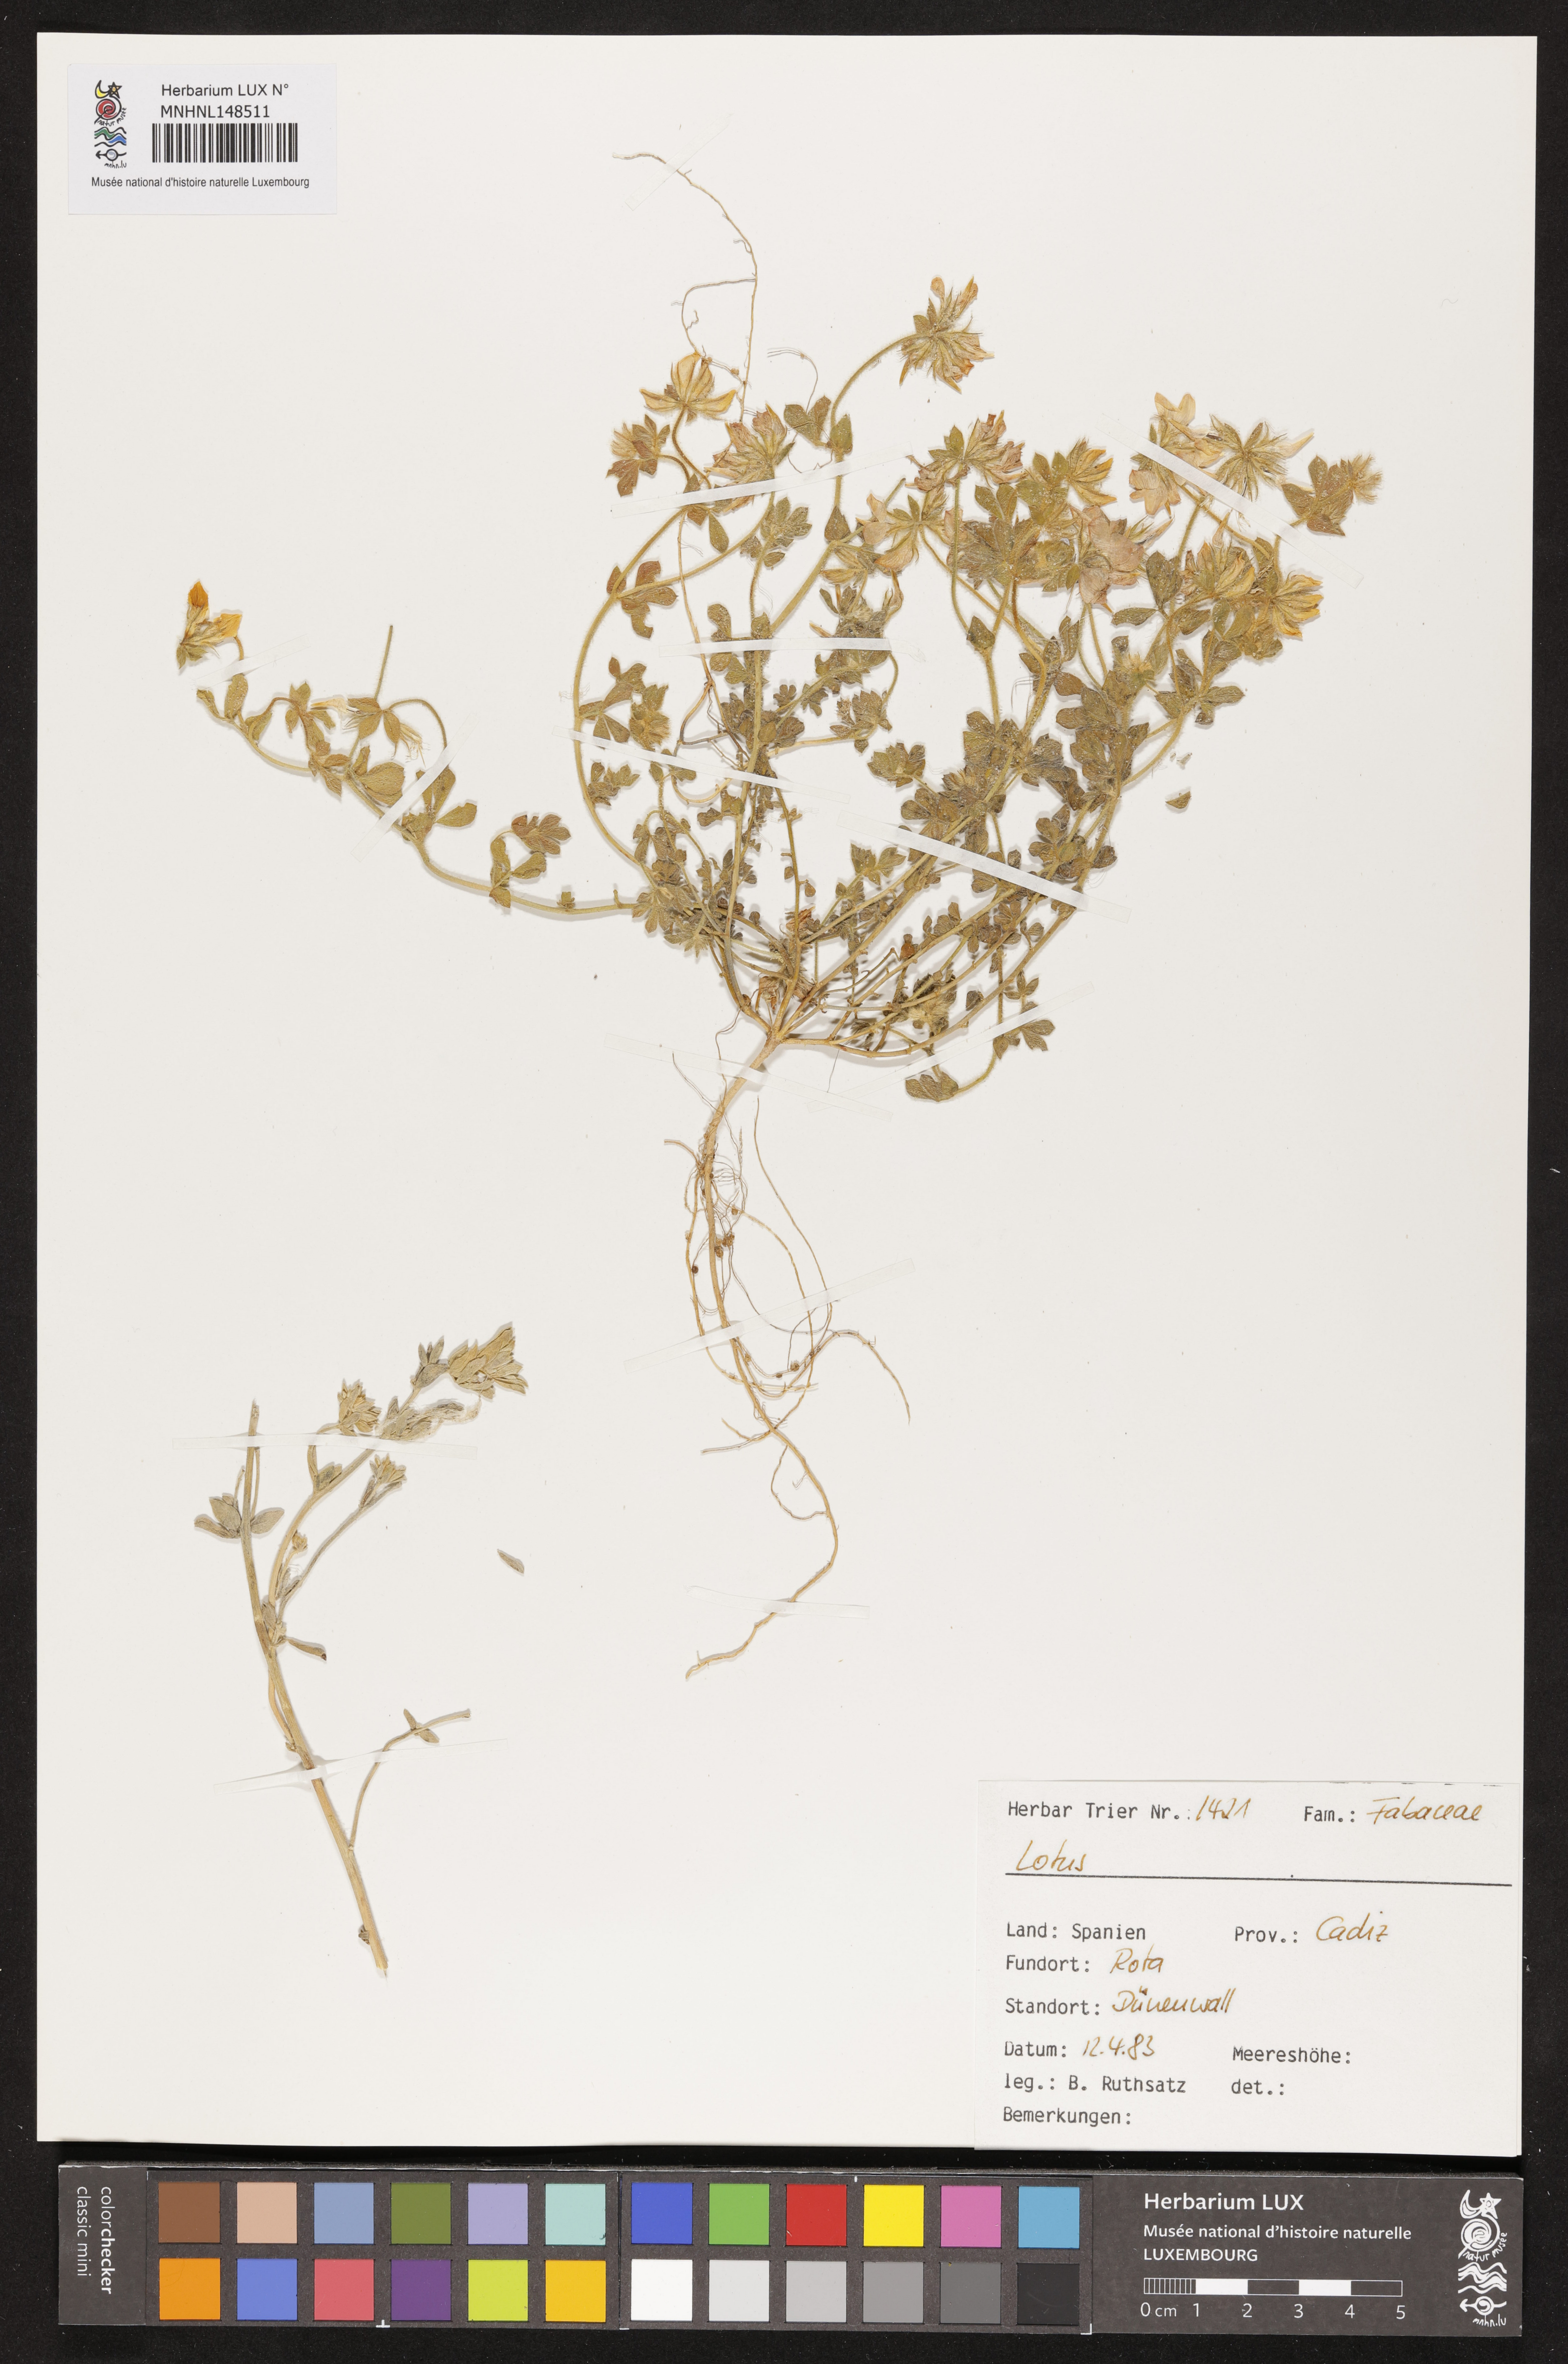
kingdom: Plantae
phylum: Tracheophyta
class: Magnoliopsida
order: Fabales
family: Fabaceae
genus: Lotus
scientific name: Lotus
